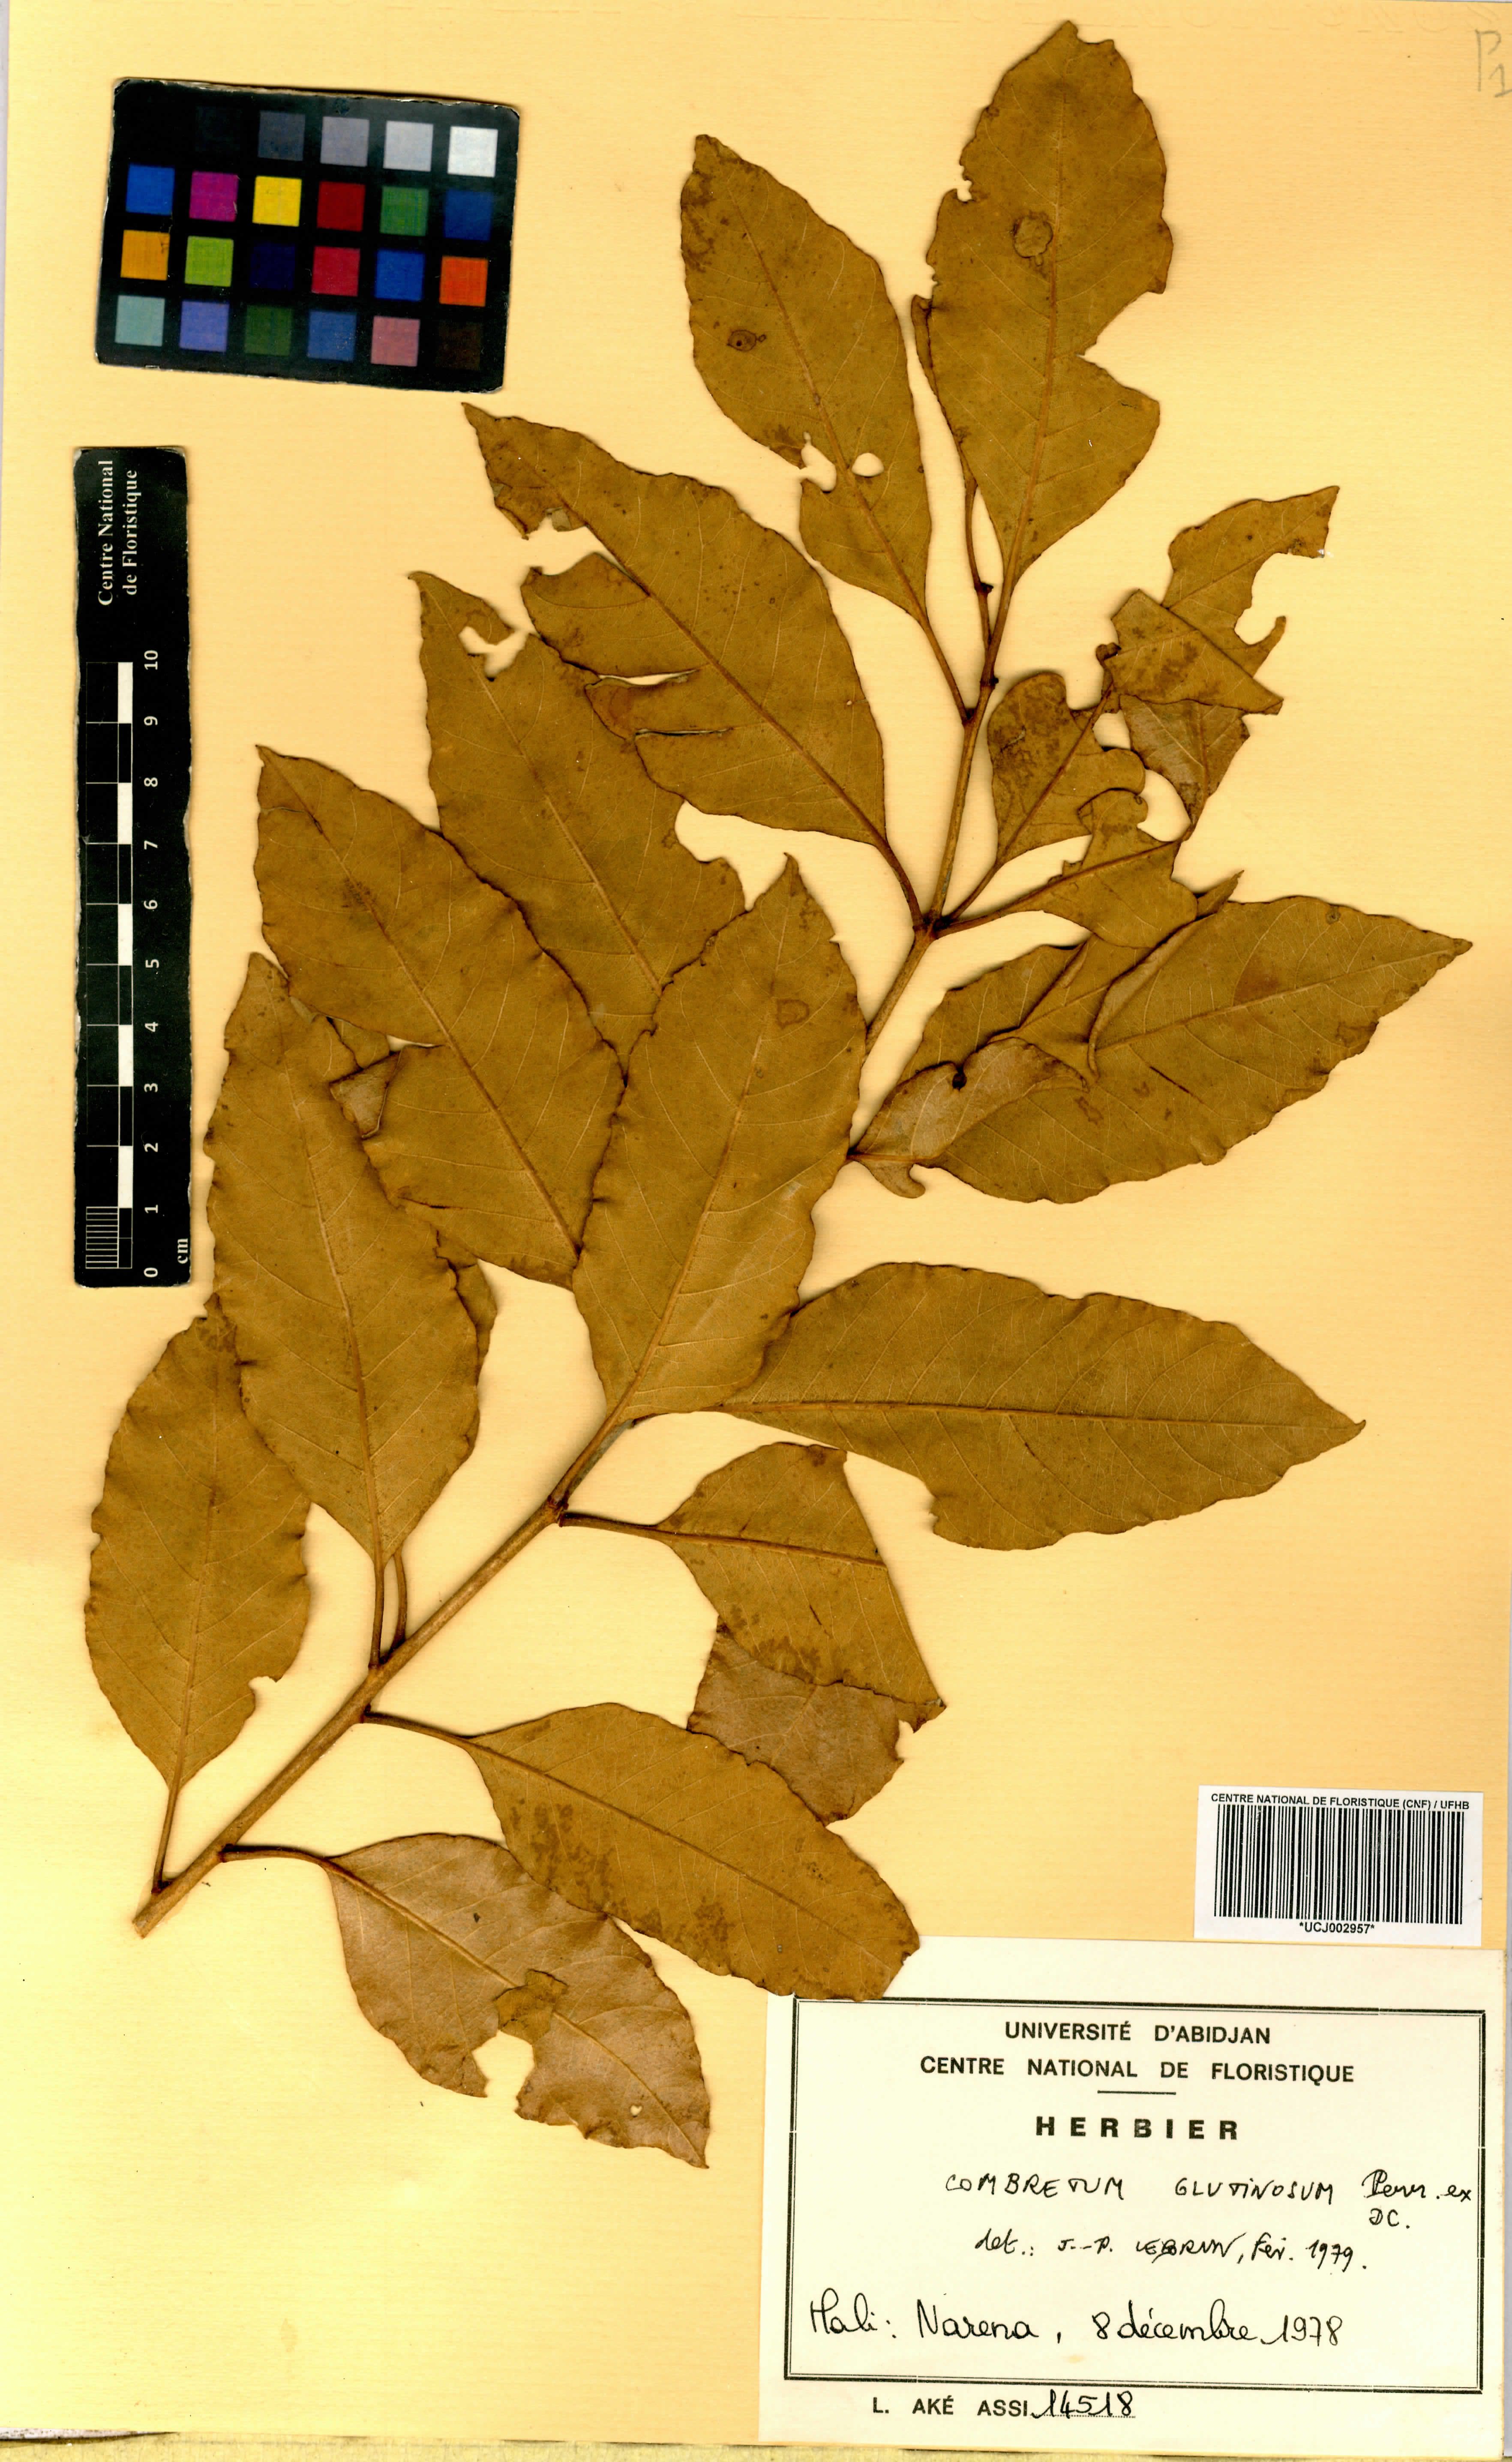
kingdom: Plantae
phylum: Tracheophyta
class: Magnoliopsida
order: Myrtales
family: Combretaceae
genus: Combretum
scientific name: Combretum glutinosum
